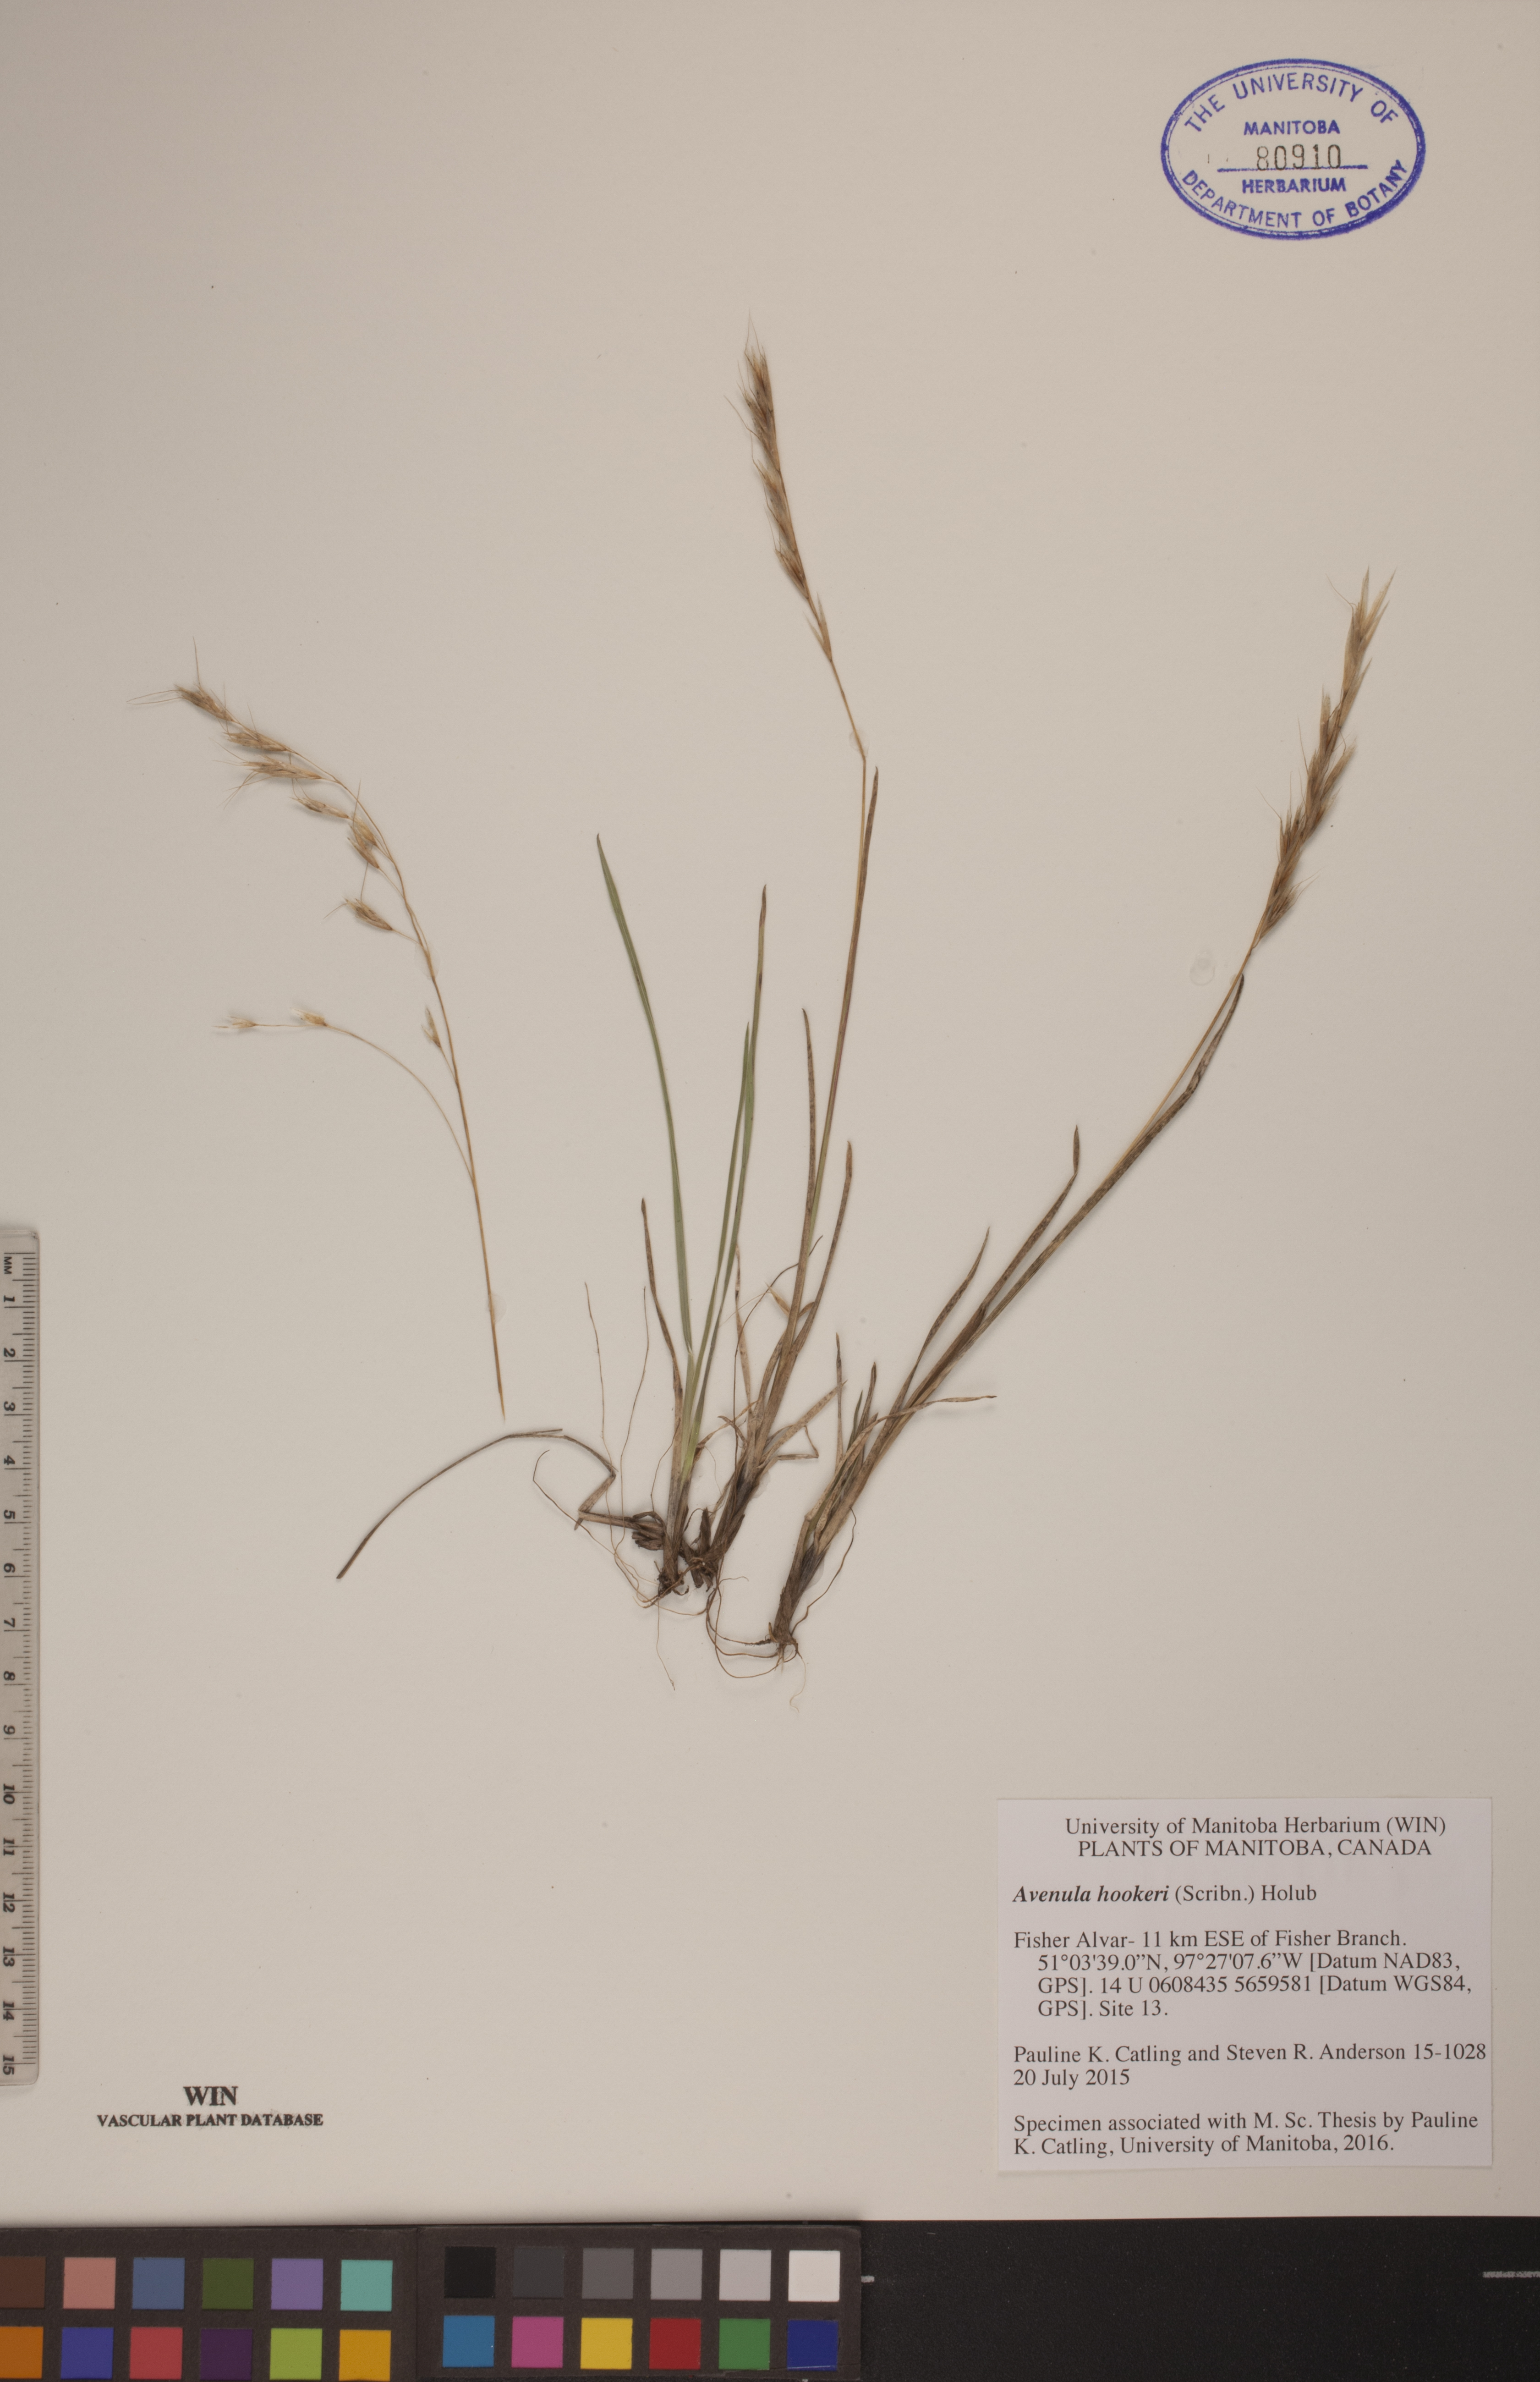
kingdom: Plantae
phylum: Tracheophyta
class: Liliopsida
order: Poales
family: Poaceae
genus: Helictochloa
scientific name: Helictochloa hookeri
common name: Hooker's alpine oatgrass
